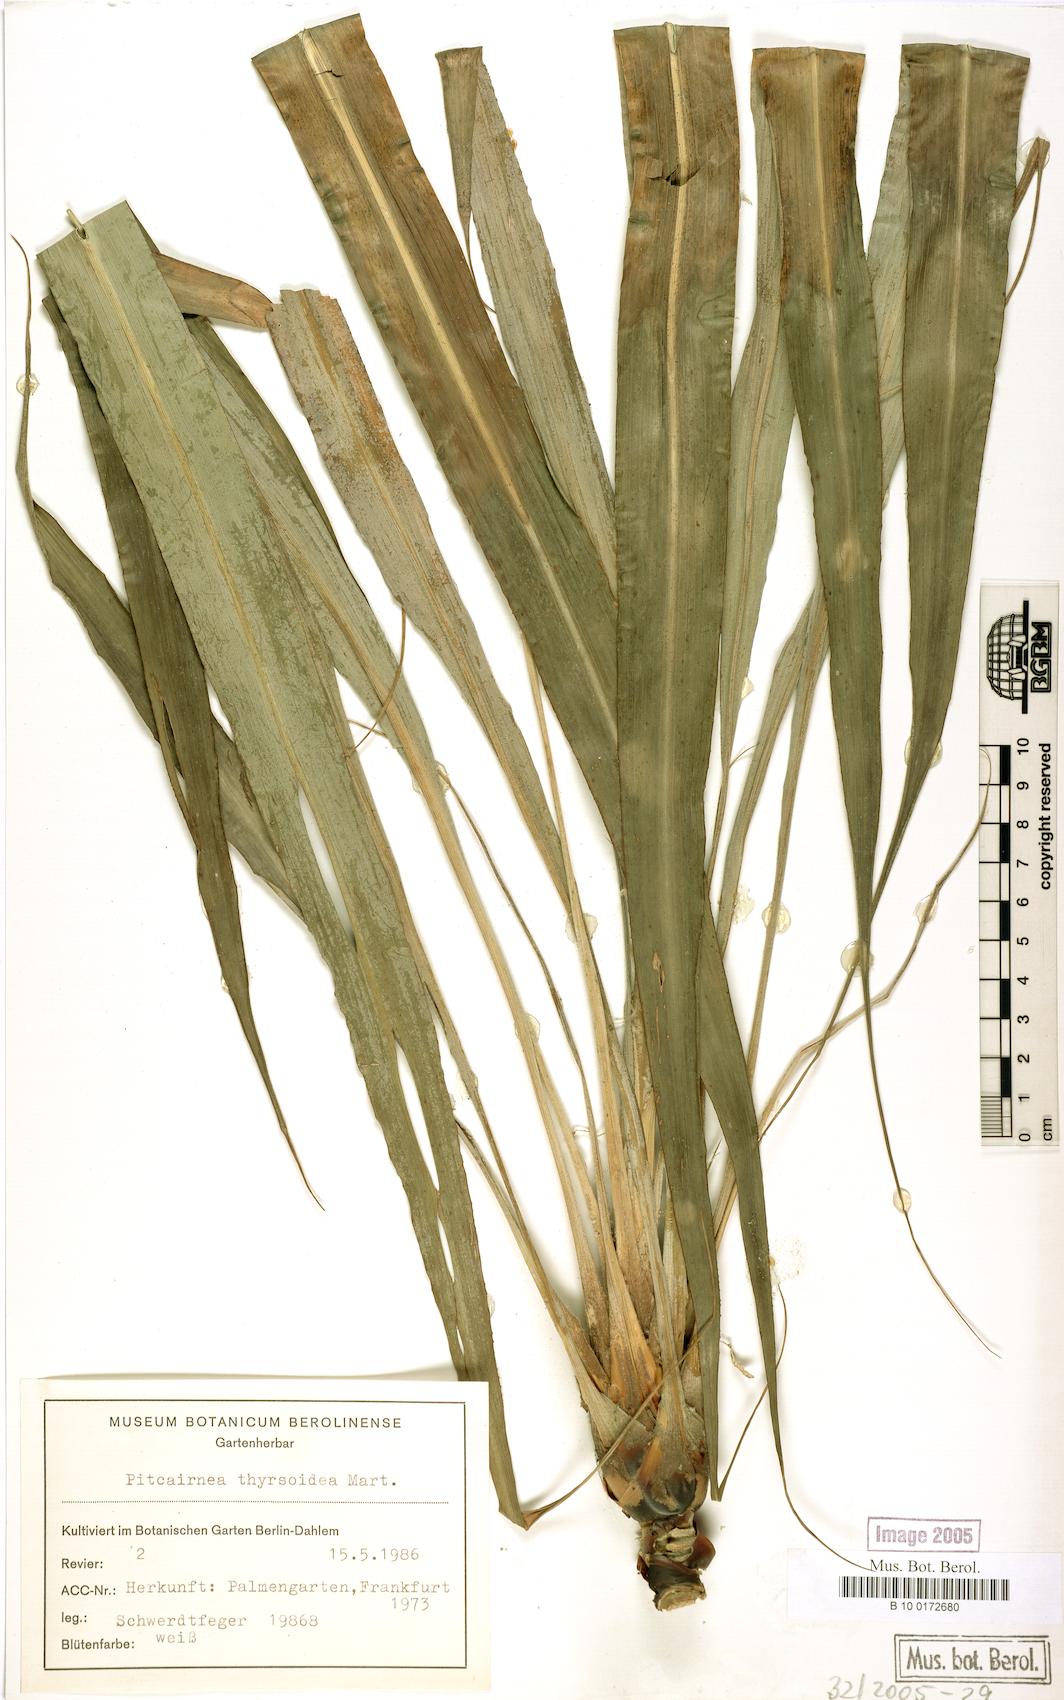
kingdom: Plantae
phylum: Tracheophyta
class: Liliopsida
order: Poales
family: Bromeliaceae
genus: Pitcairnia
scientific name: Pitcairnia
